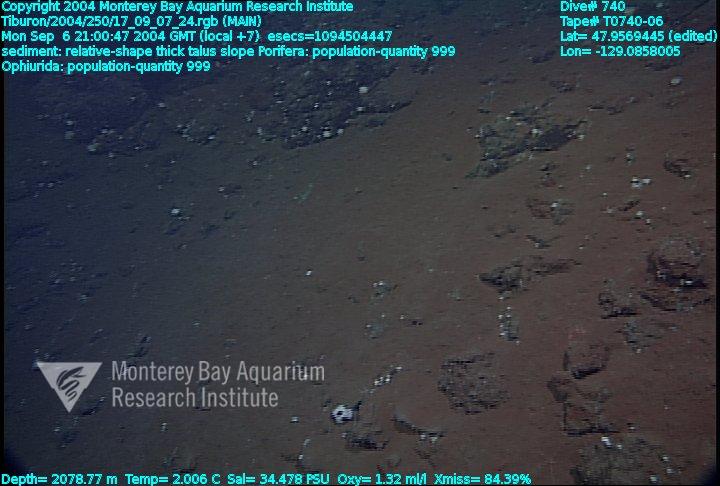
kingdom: Animalia
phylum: Porifera
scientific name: Porifera
